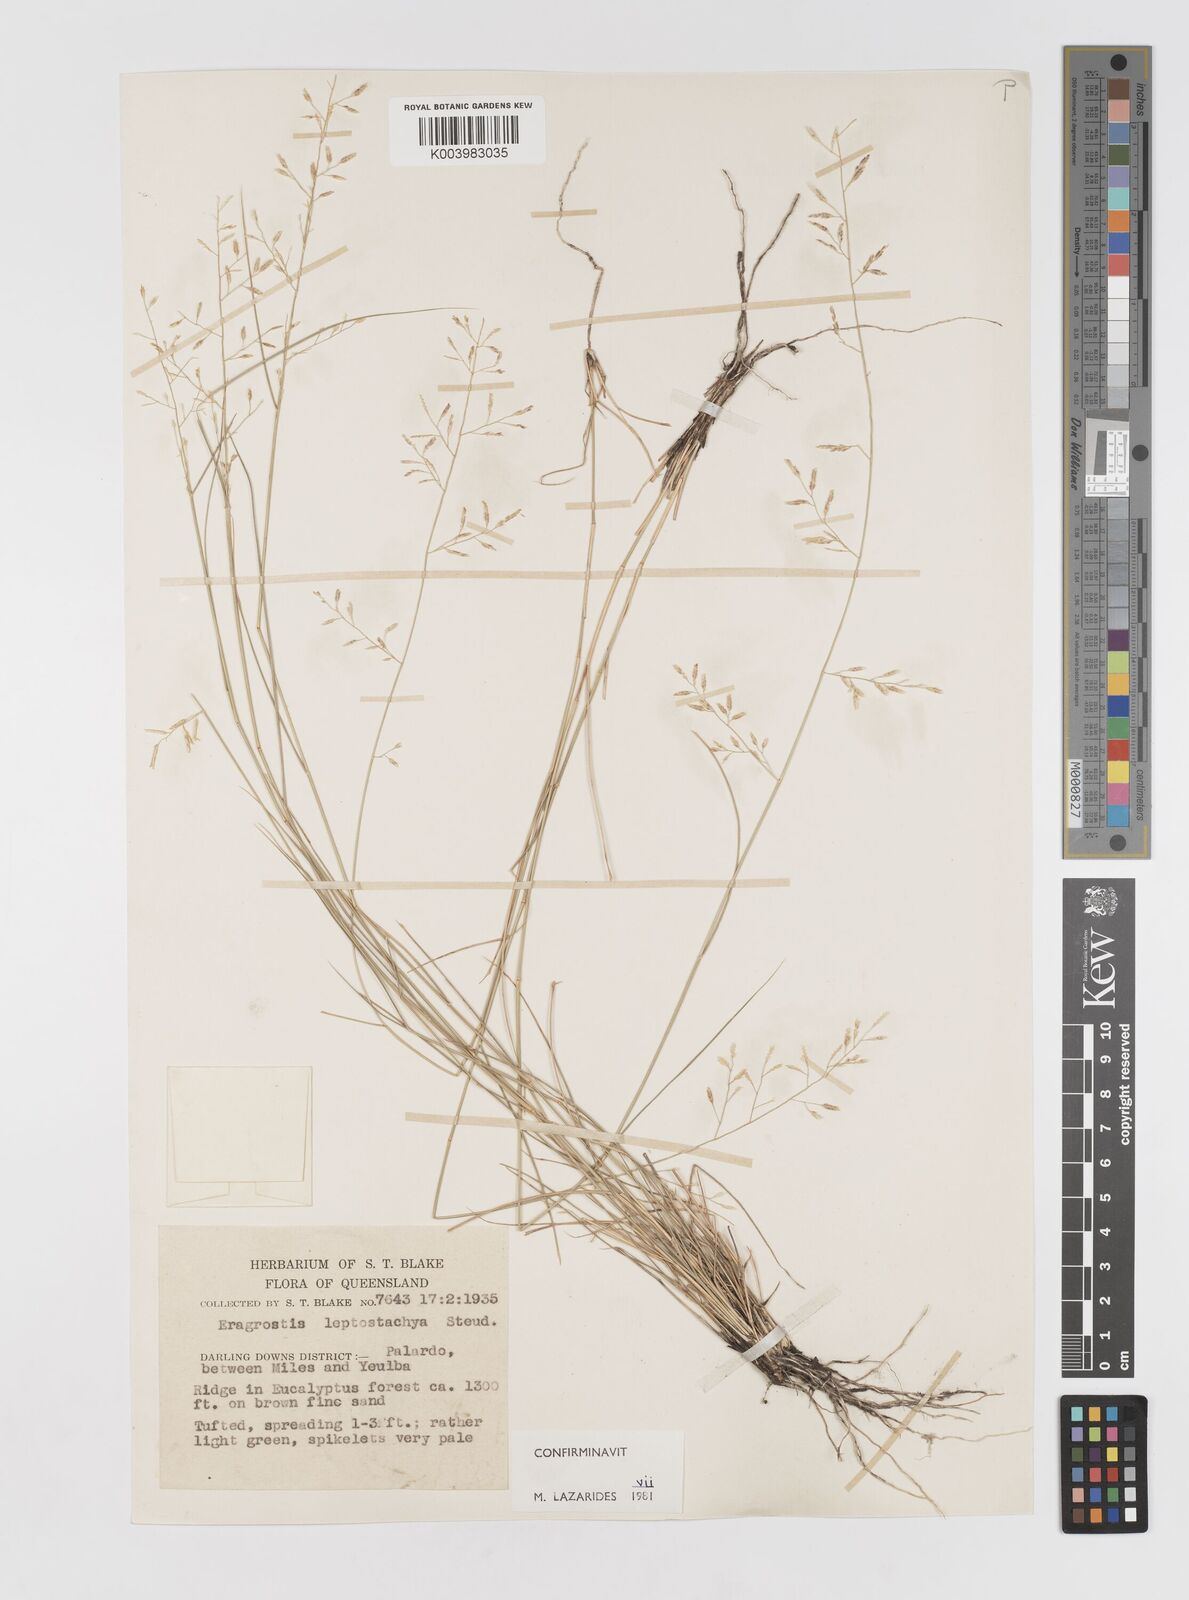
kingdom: Plantae
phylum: Tracheophyta
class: Liliopsida
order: Poales
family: Poaceae
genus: Eragrostis
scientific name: Eragrostis leptostachya
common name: Australian lovegrass
